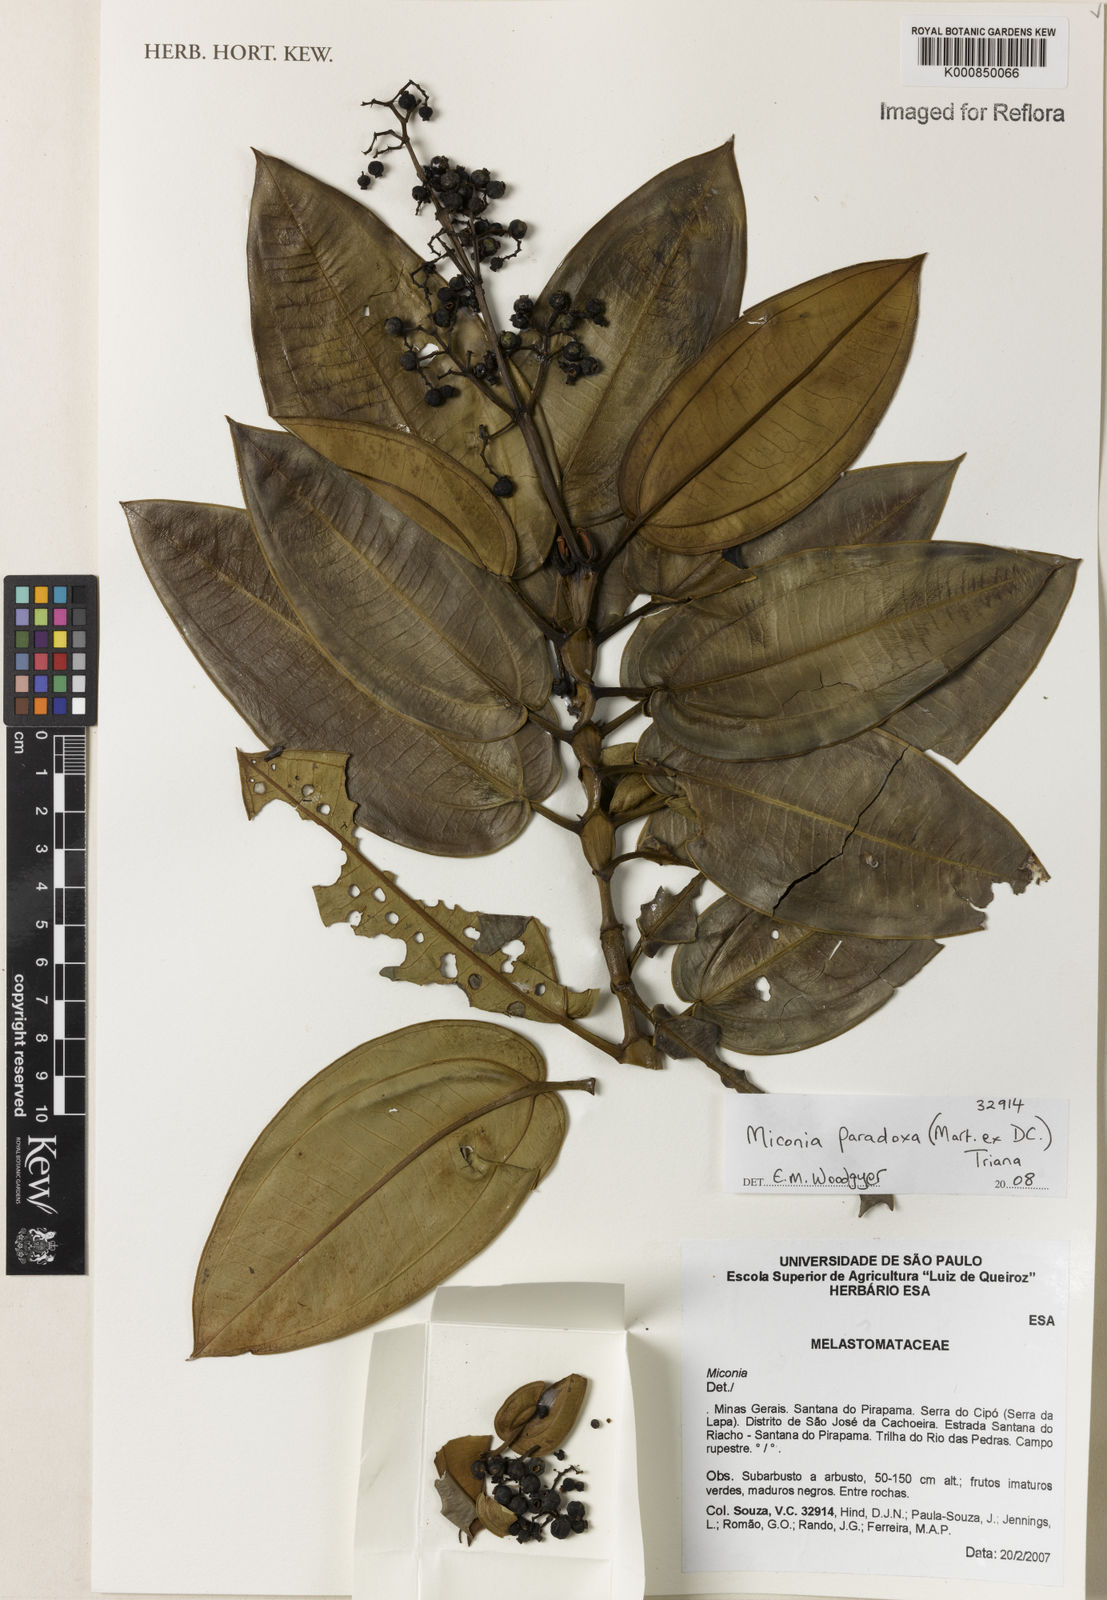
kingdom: Plantae
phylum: Tracheophyta
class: Magnoliopsida
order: Myrtales
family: Melastomataceae
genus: Miconia
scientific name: Miconia paradoxa
